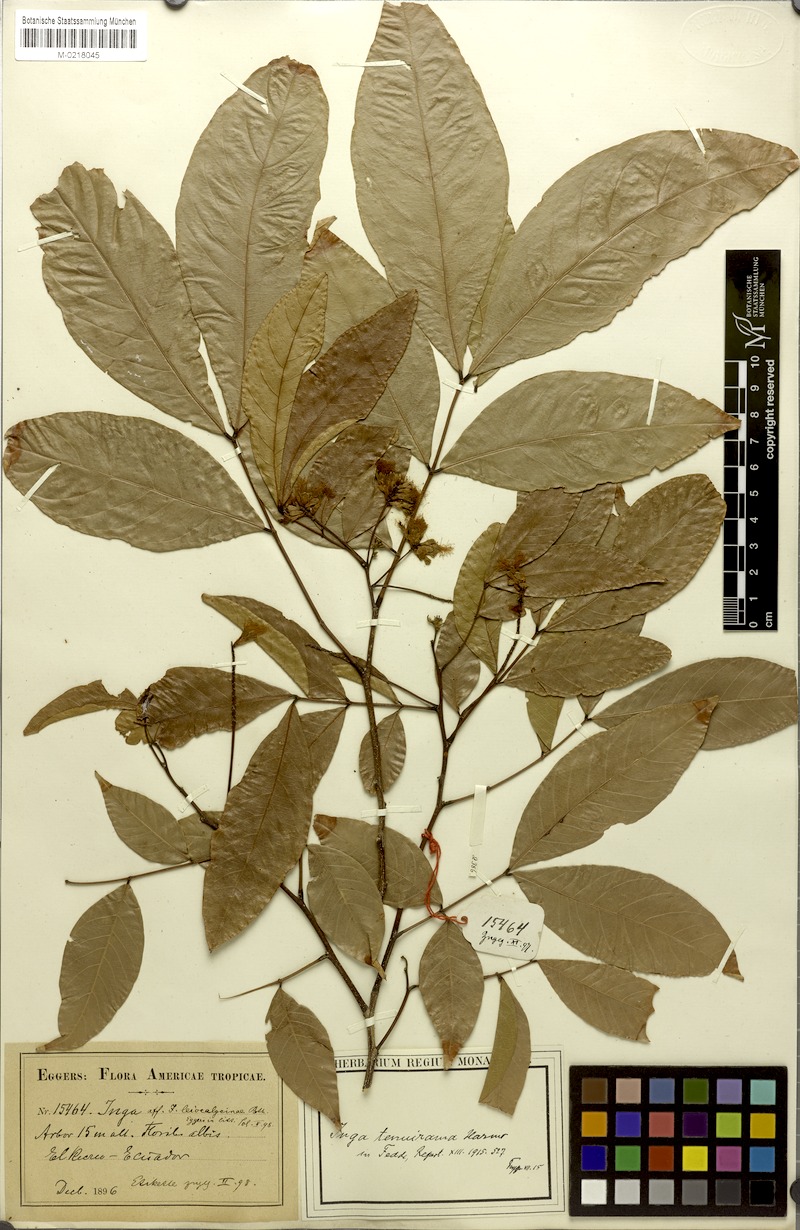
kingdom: Plantae
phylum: Tracheophyta
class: Magnoliopsida
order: Fabales
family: Fabaceae
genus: Inga
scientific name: Inga laevigata
